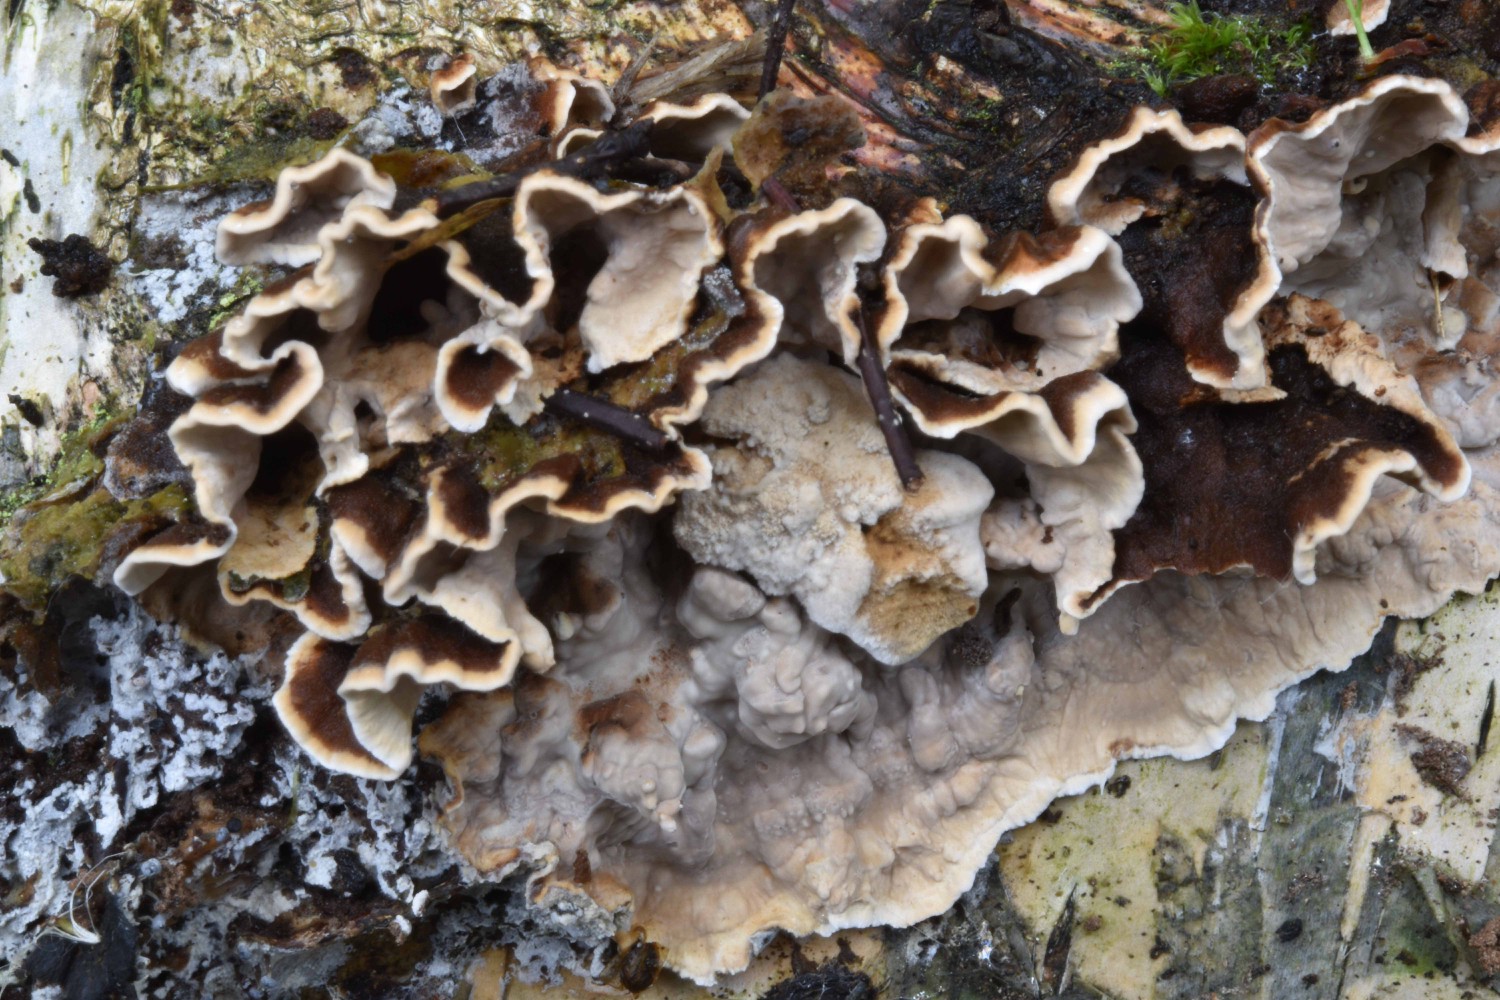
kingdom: Fungi
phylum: Basidiomycota
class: Agaricomycetes
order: Russulales
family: Hericiaceae
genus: Laxitextum
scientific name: Laxitextum bicolor
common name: tvefarvet filtskind
